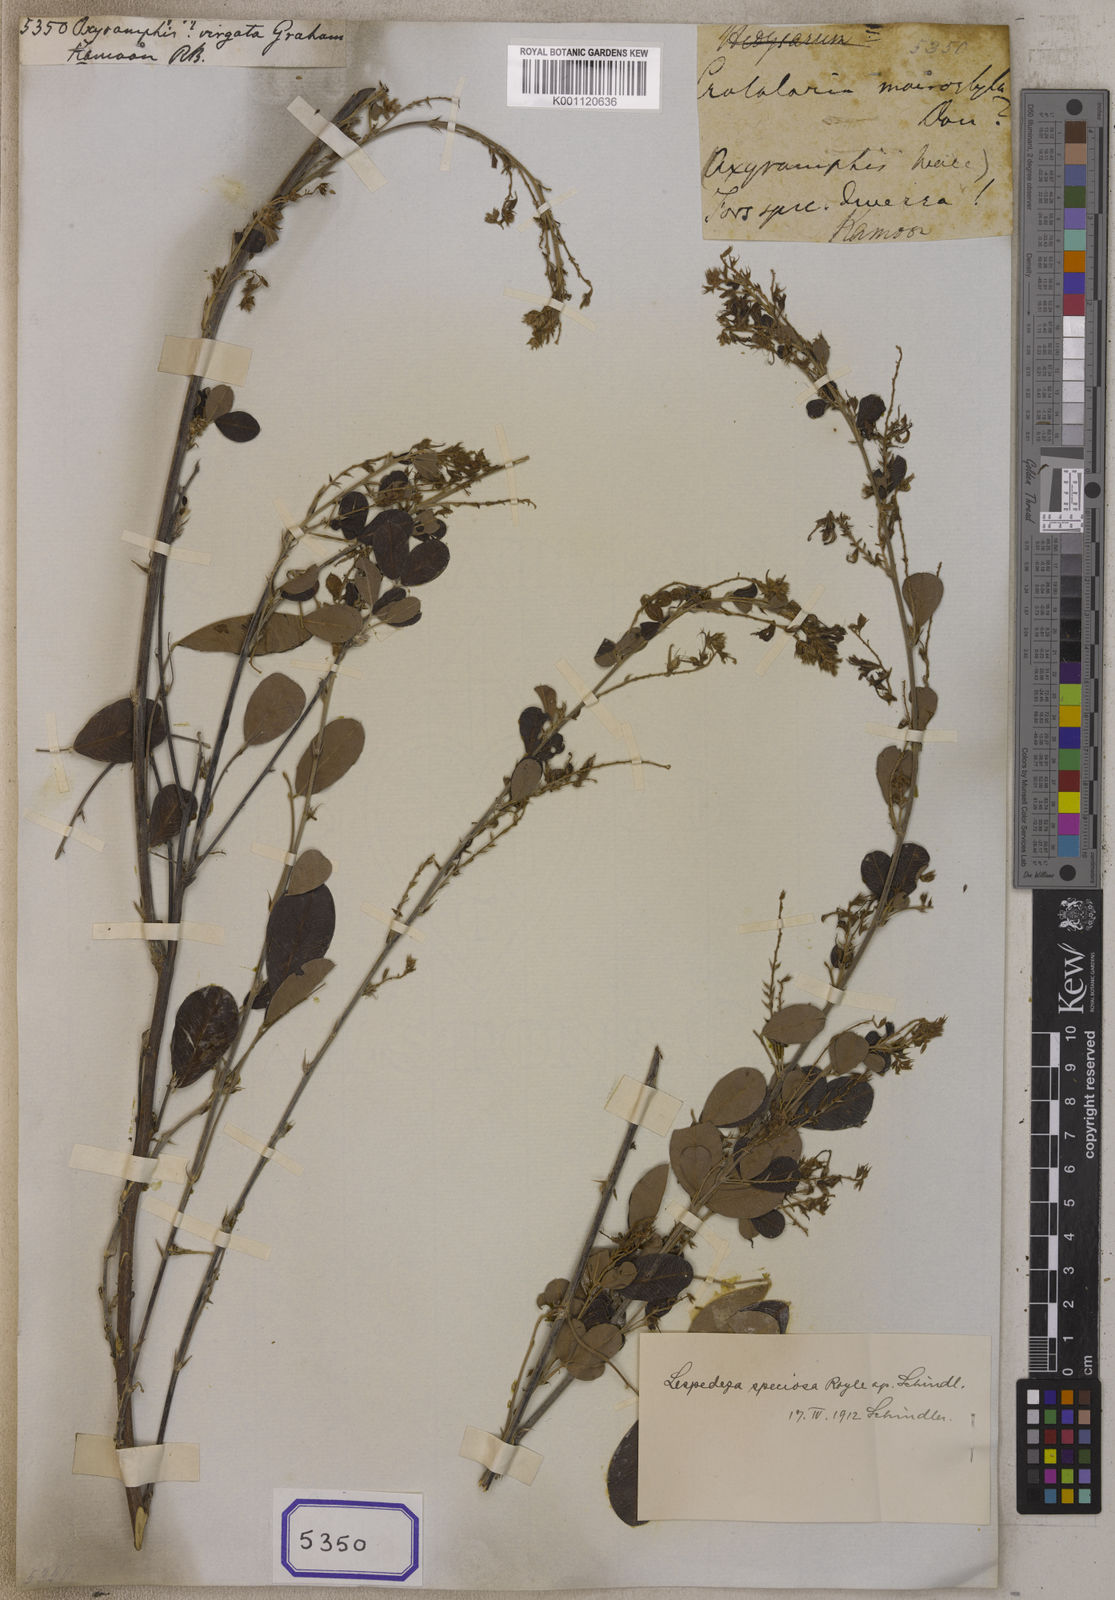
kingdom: Plantae
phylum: Tracheophyta
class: Magnoliopsida
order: Fabales
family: Fabaceae
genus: Oxyramphis
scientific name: Oxyramphis
